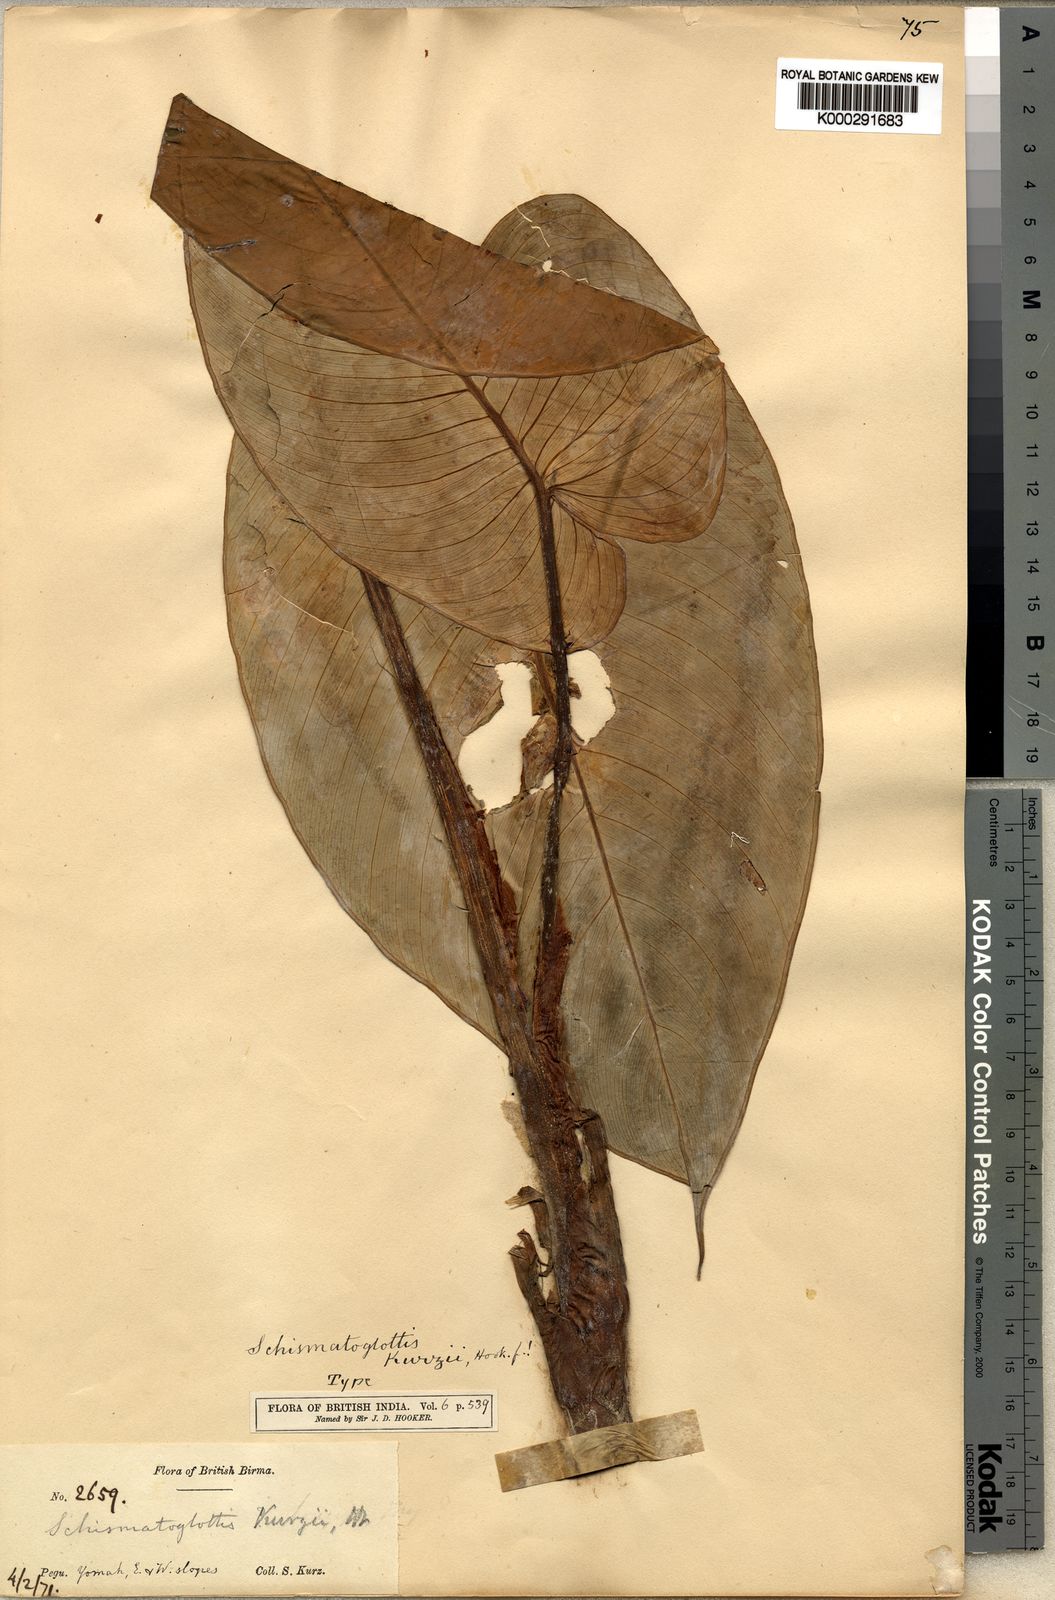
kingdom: Plantae
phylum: Tracheophyta
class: Liliopsida
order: Alismatales
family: Araceae
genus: Apoballis
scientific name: Apoballis mutata
